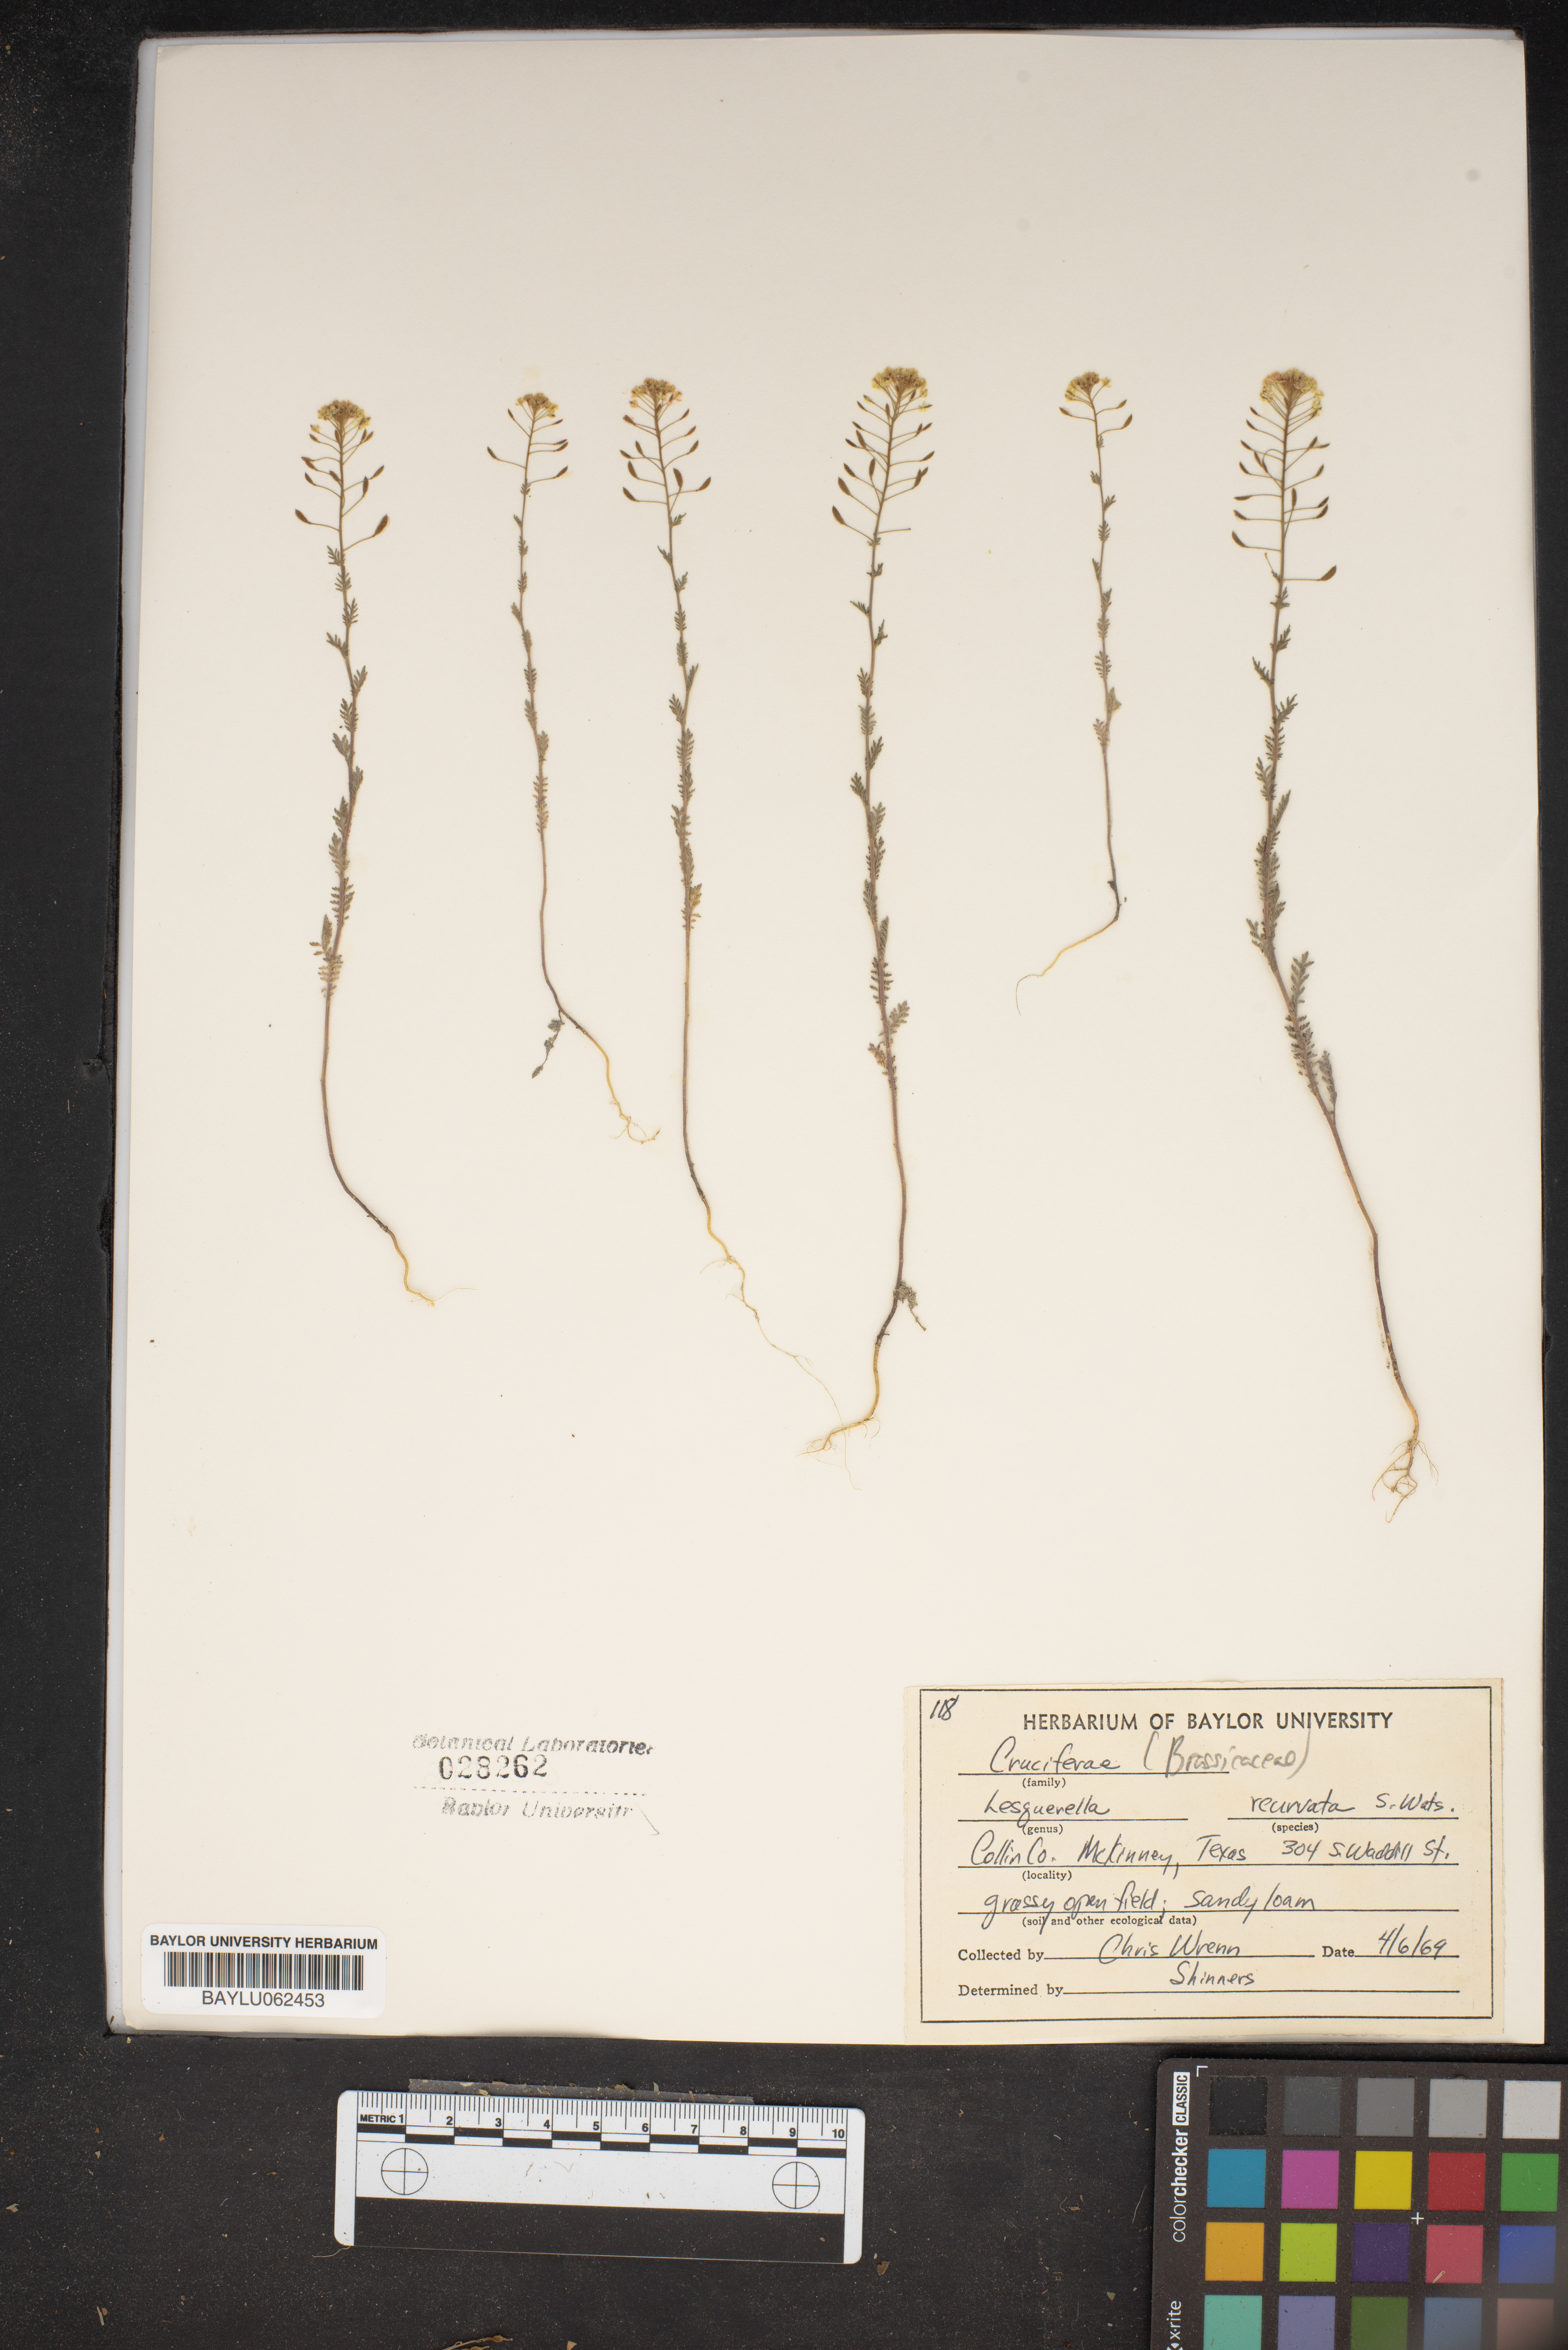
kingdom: Plantae
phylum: Tracheophyta
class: Magnoliopsida
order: Brassicales
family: Brassicaceae
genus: Physaria
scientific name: Physaria recurvata
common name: Gaslight bladderpod
